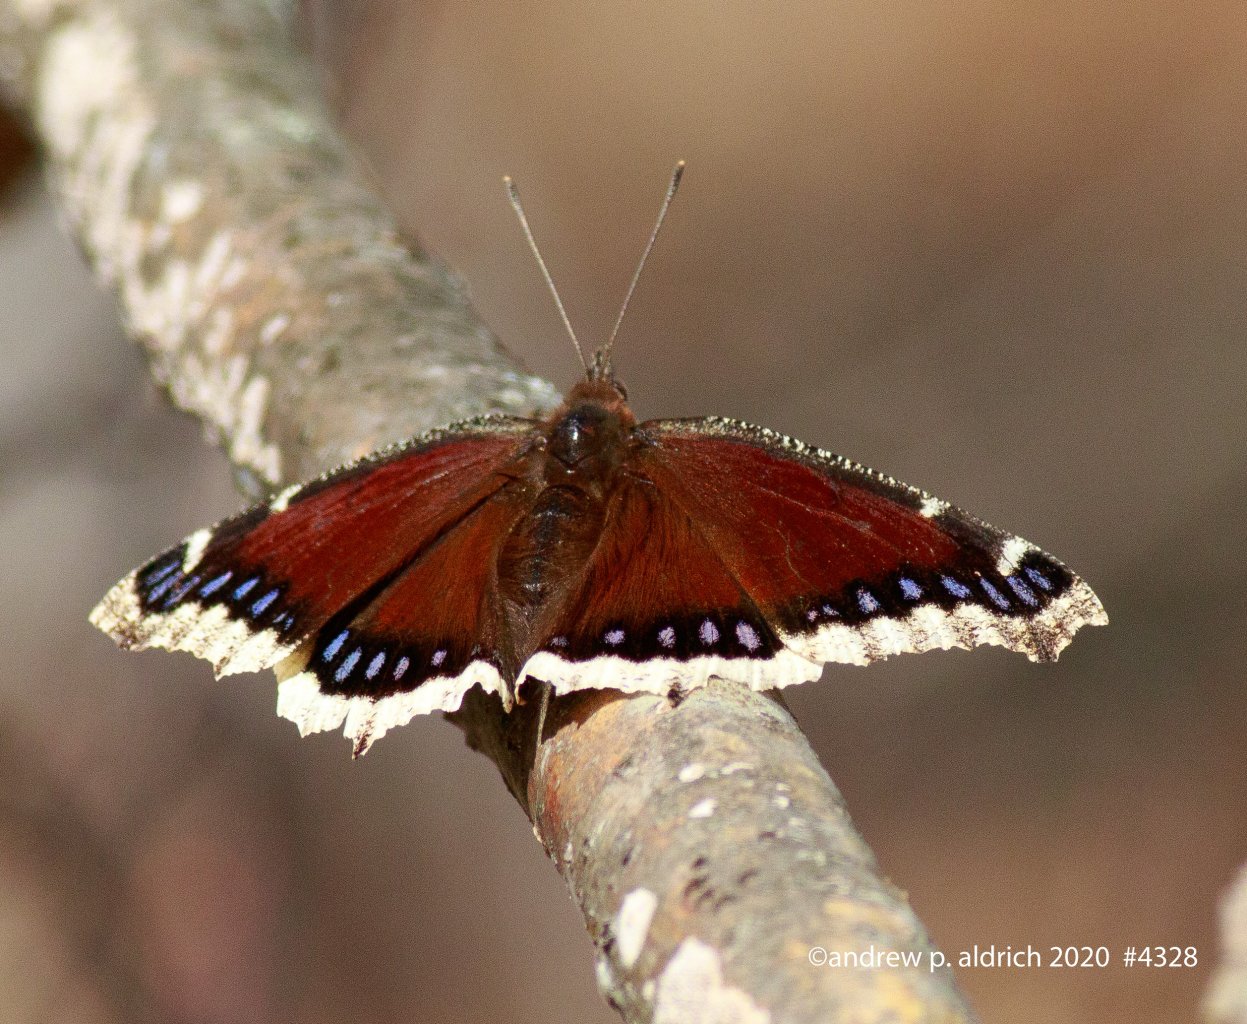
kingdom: Animalia
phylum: Arthropoda
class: Insecta
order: Lepidoptera
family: Nymphalidae
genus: Nymphalis
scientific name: Nymphalis antiopa
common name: Mourning Cloak
